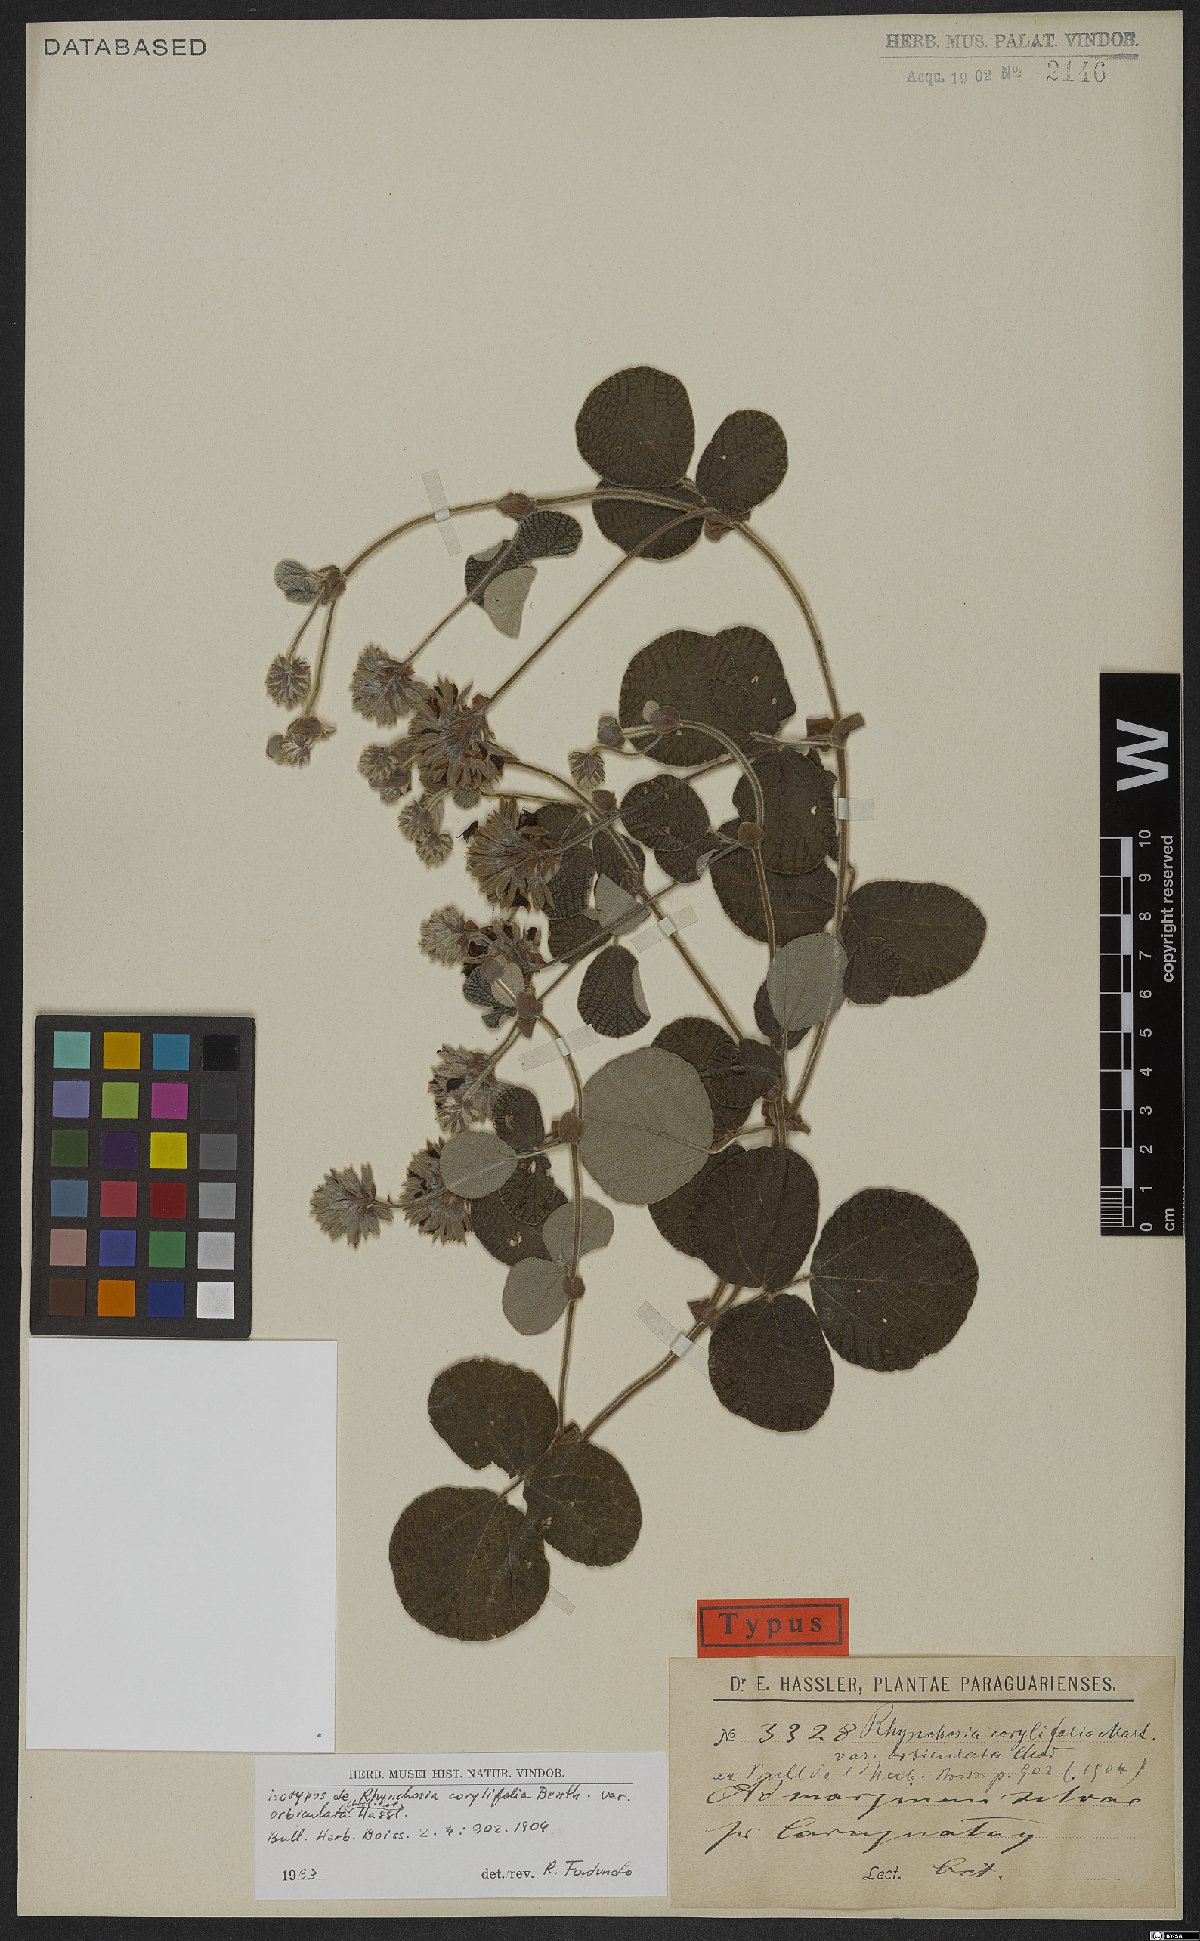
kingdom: Plantae
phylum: Tracheophyta
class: Magnoliopsida
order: Fabales
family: Fabaceae
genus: Rhynchosia
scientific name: Rhynchosia corylifolia
